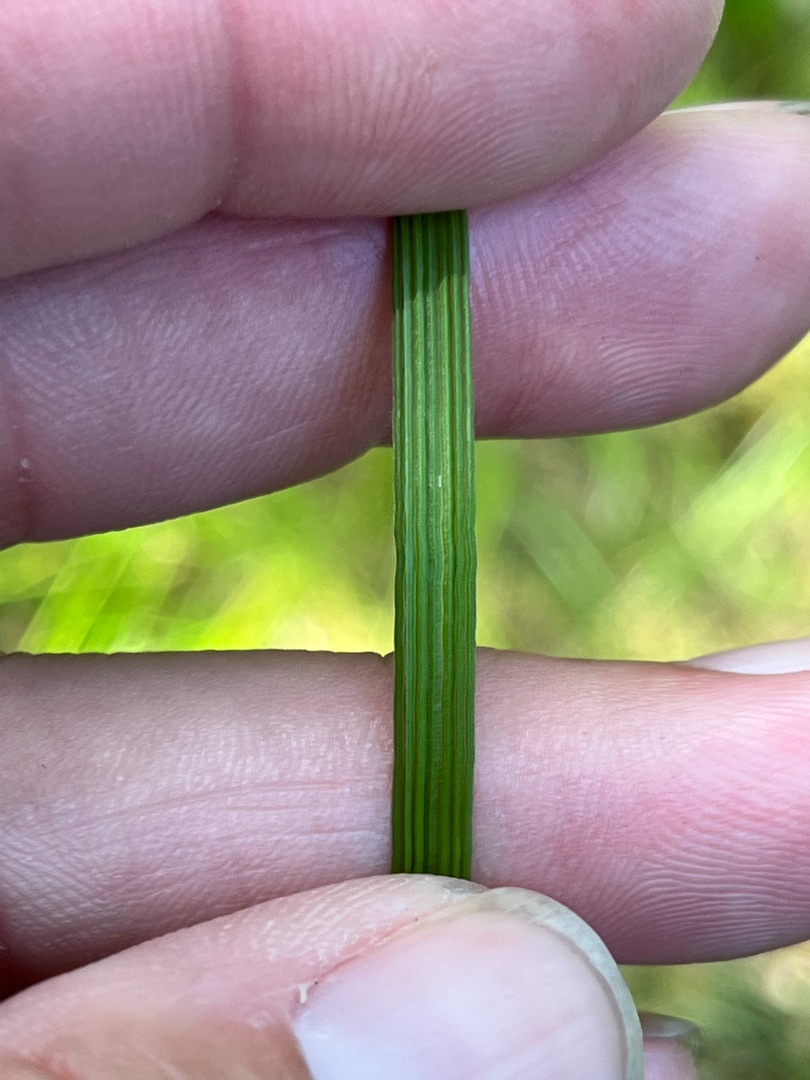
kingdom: Plantae
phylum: Tracheophyta
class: Liliopsida
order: Poales
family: Poaceae
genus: Deschampsia
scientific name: Deschampsia cespitosa
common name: Mose-bunke
